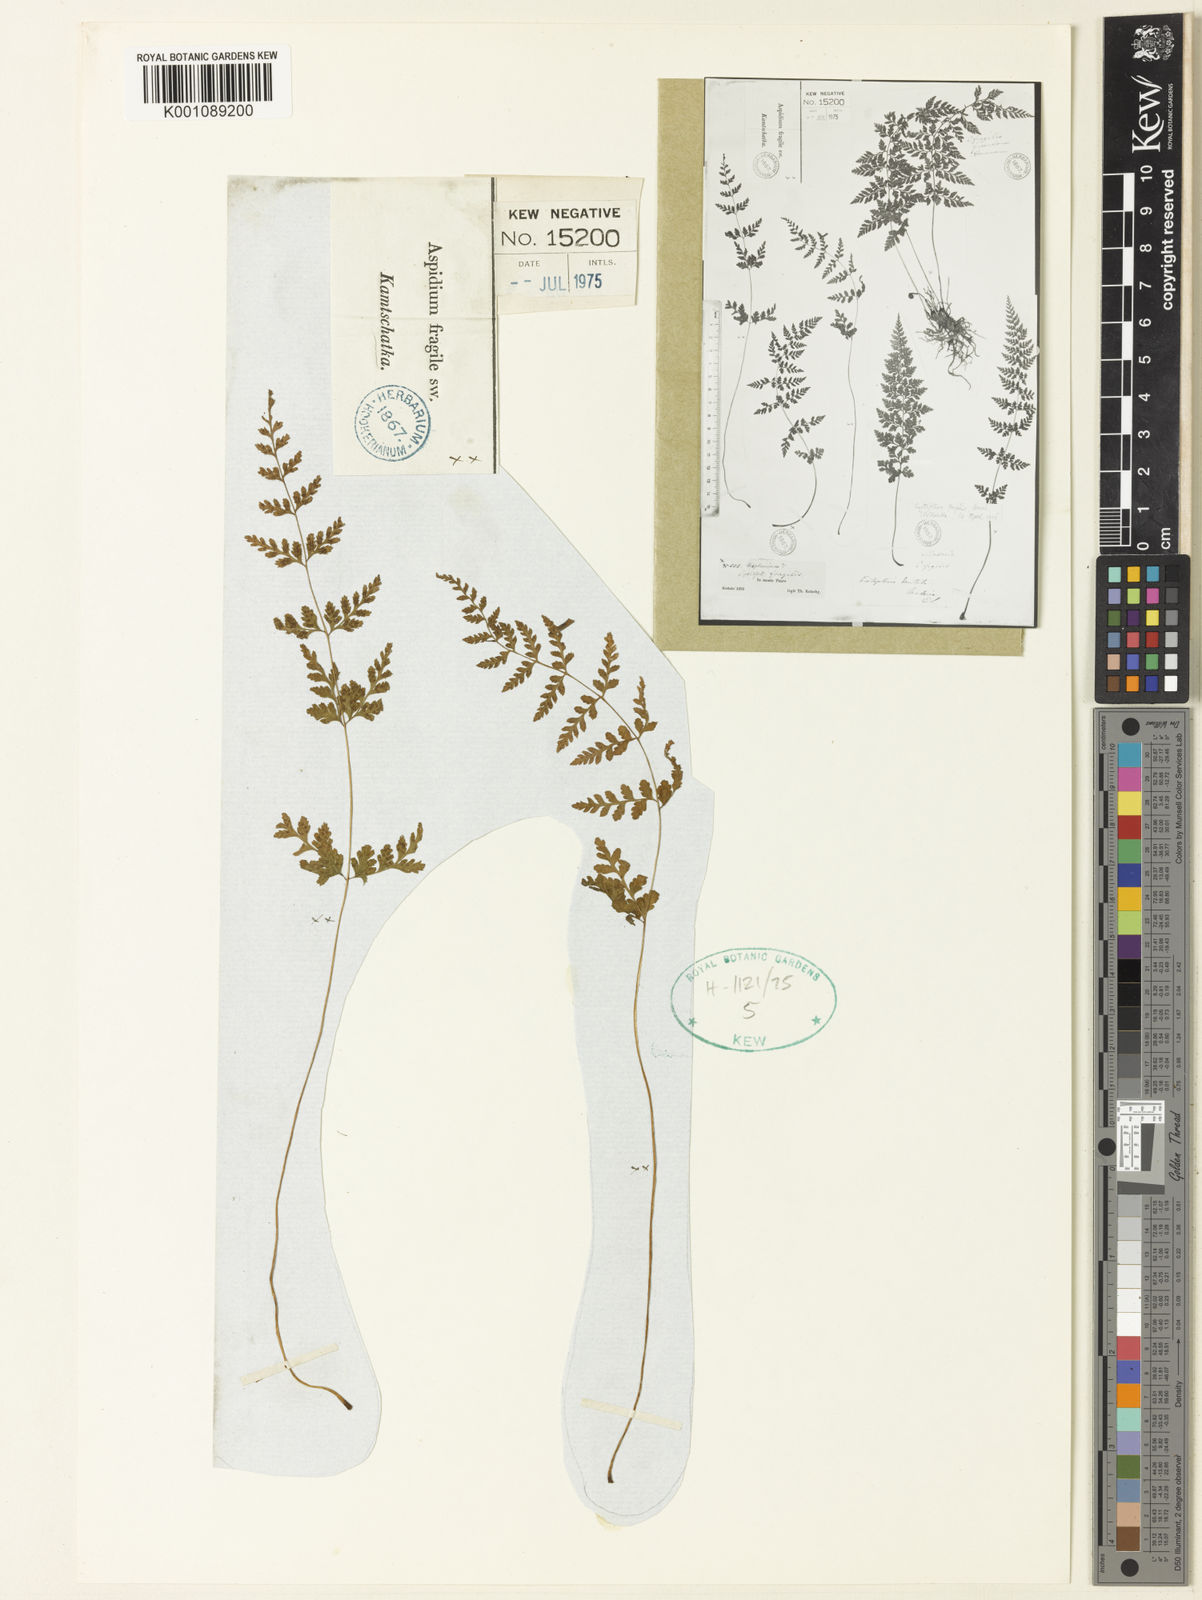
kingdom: Plantae
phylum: Tracheophyta
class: Polypodiopsida
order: Polypodiales
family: Cystopteridaceae
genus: Cystopteris
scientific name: Cystopteris fragilis
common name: Brittle bladder fern
